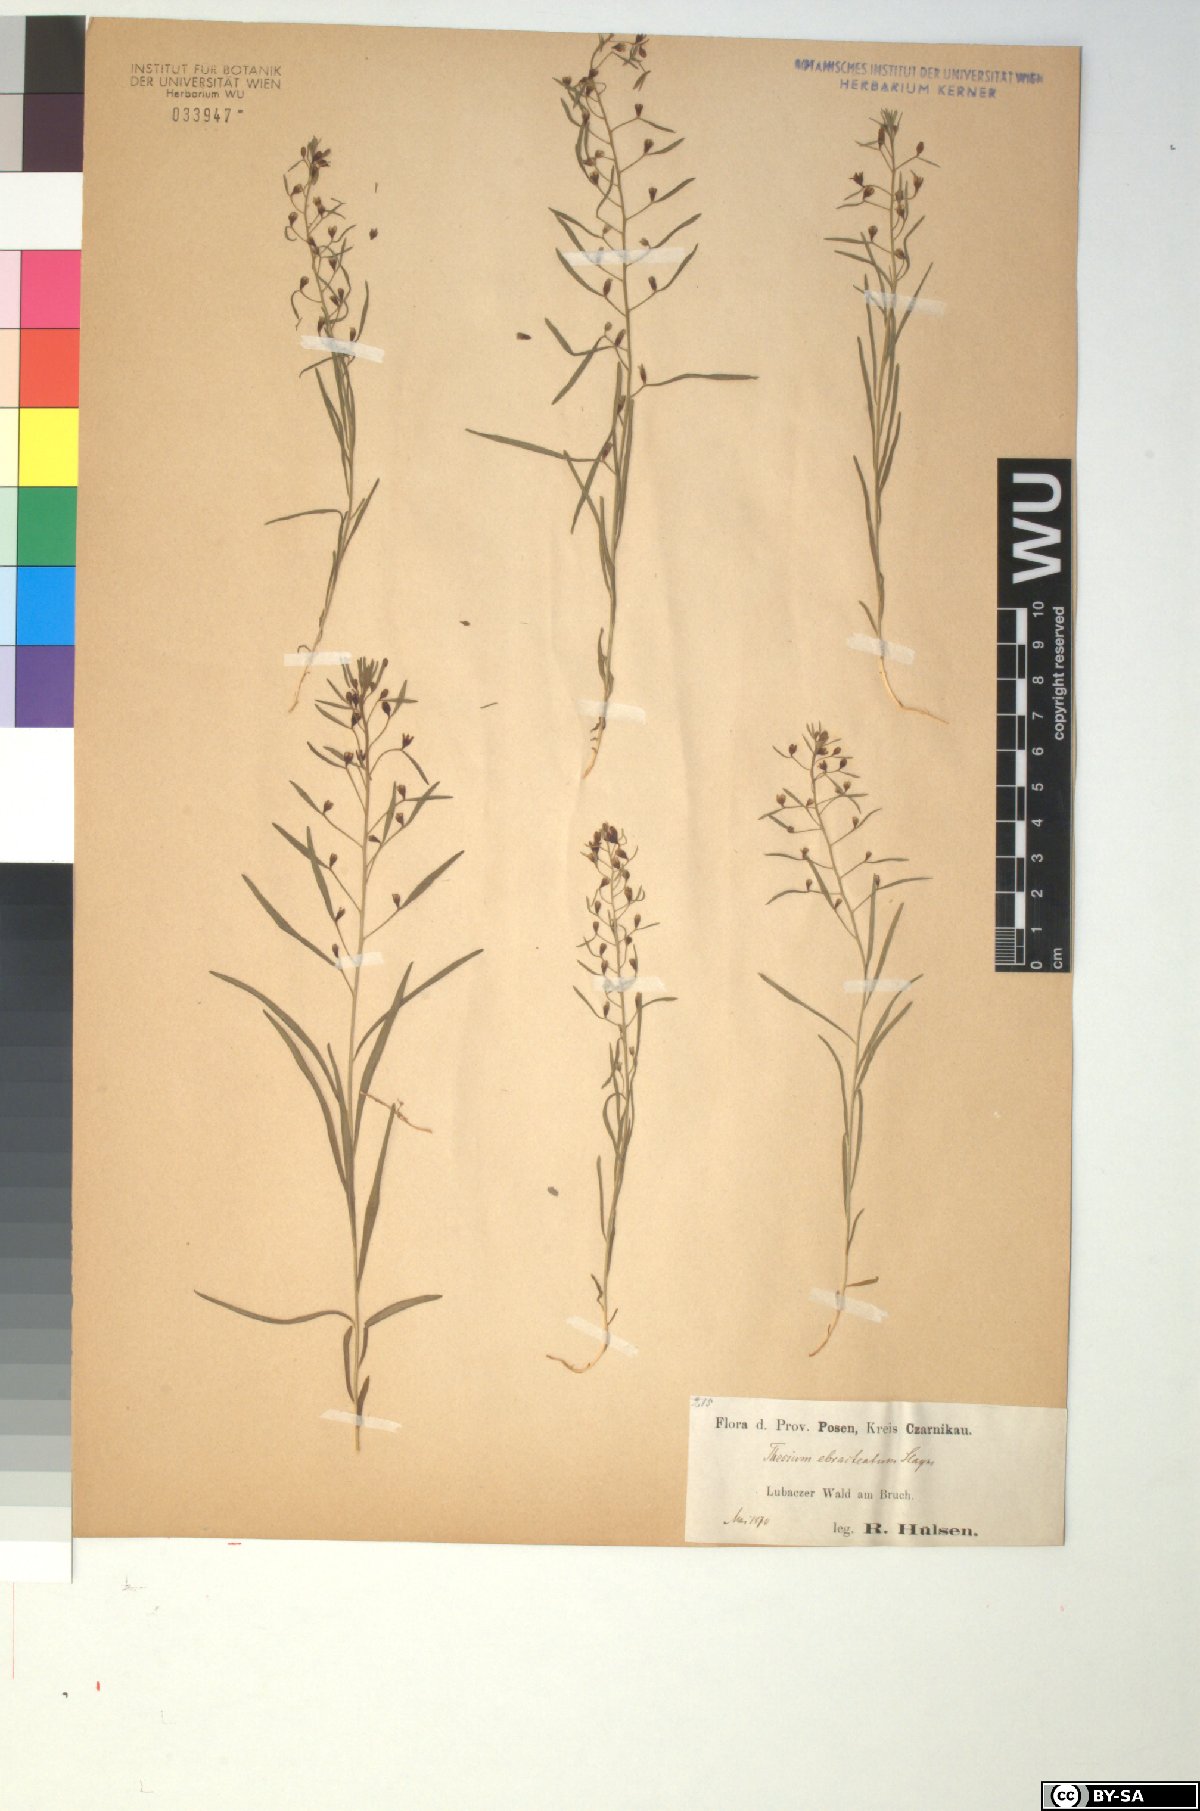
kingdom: Plantae
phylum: Tracheophyta
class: Magnoliopsida
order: Santalales
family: Thesiaceae
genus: Thesium
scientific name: Thesium ebracteatum
